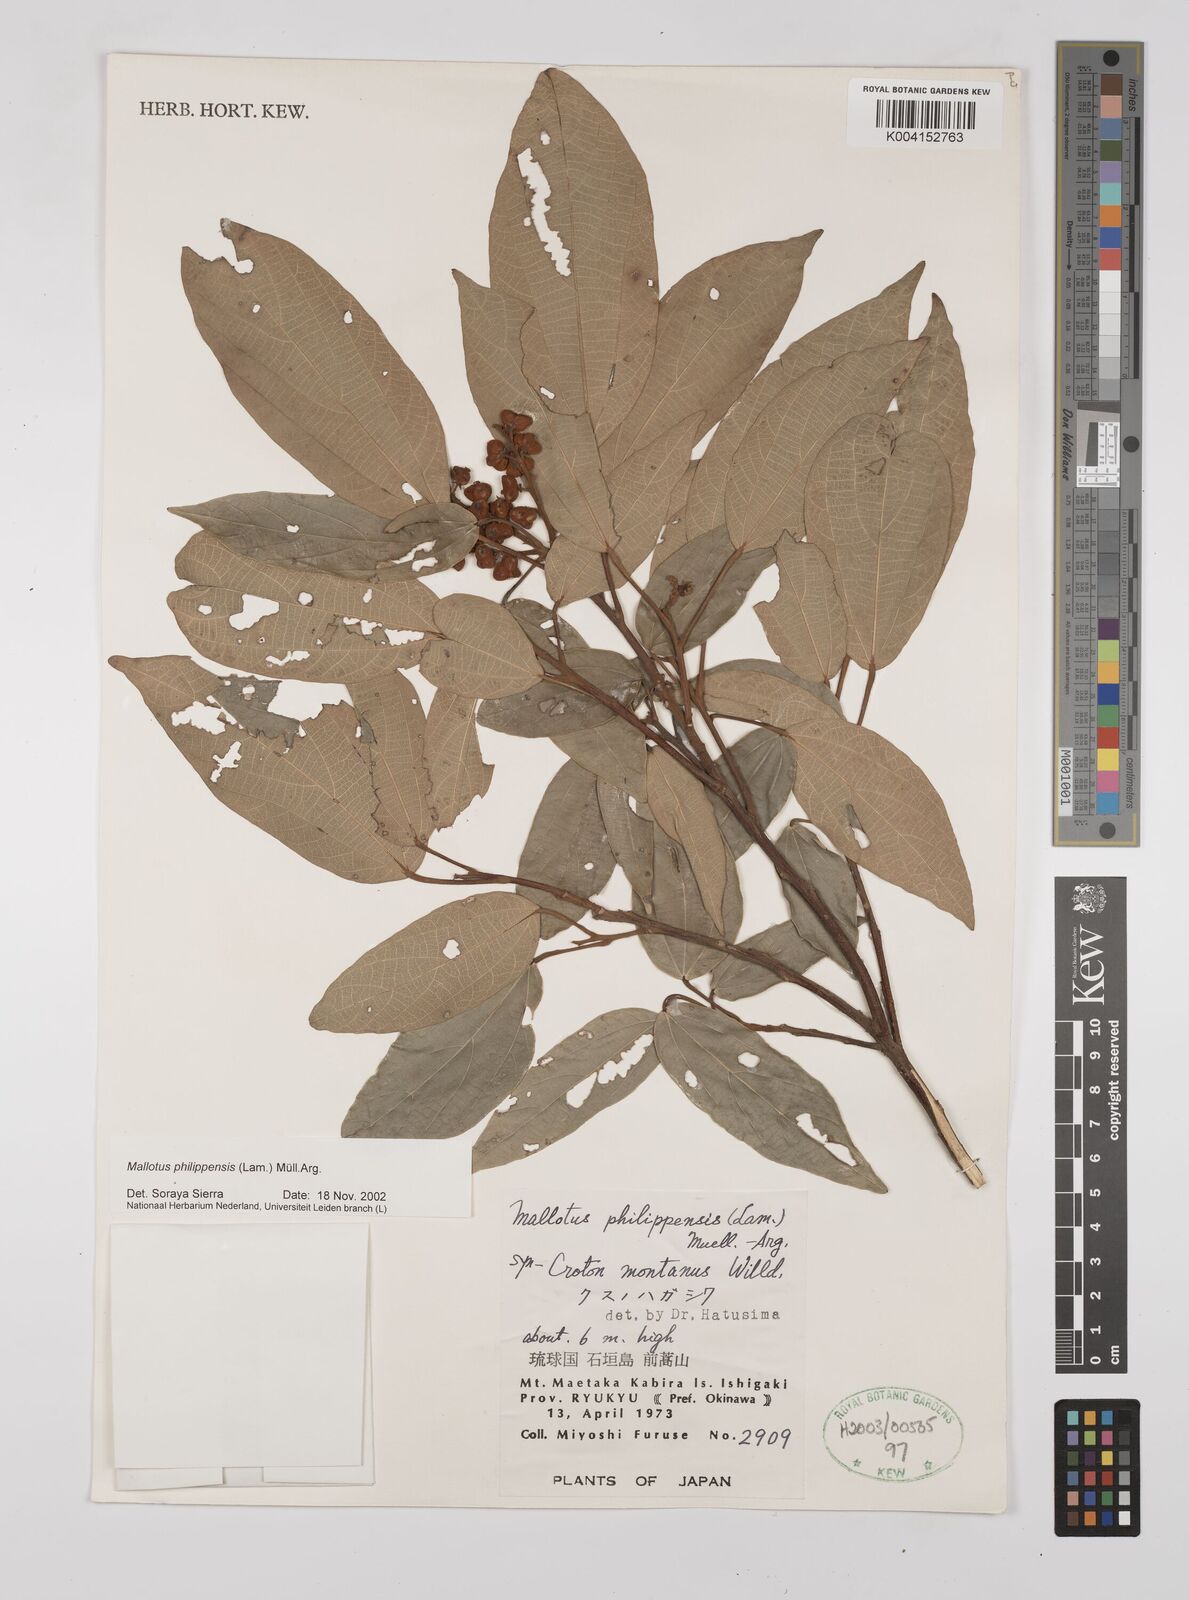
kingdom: Plantae
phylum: Tracheophyta
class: Magnoliopsida
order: Malpighiales
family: Euphorbiaceae
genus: Mallotus
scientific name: Mallotus philippensis
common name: Kamala tree
